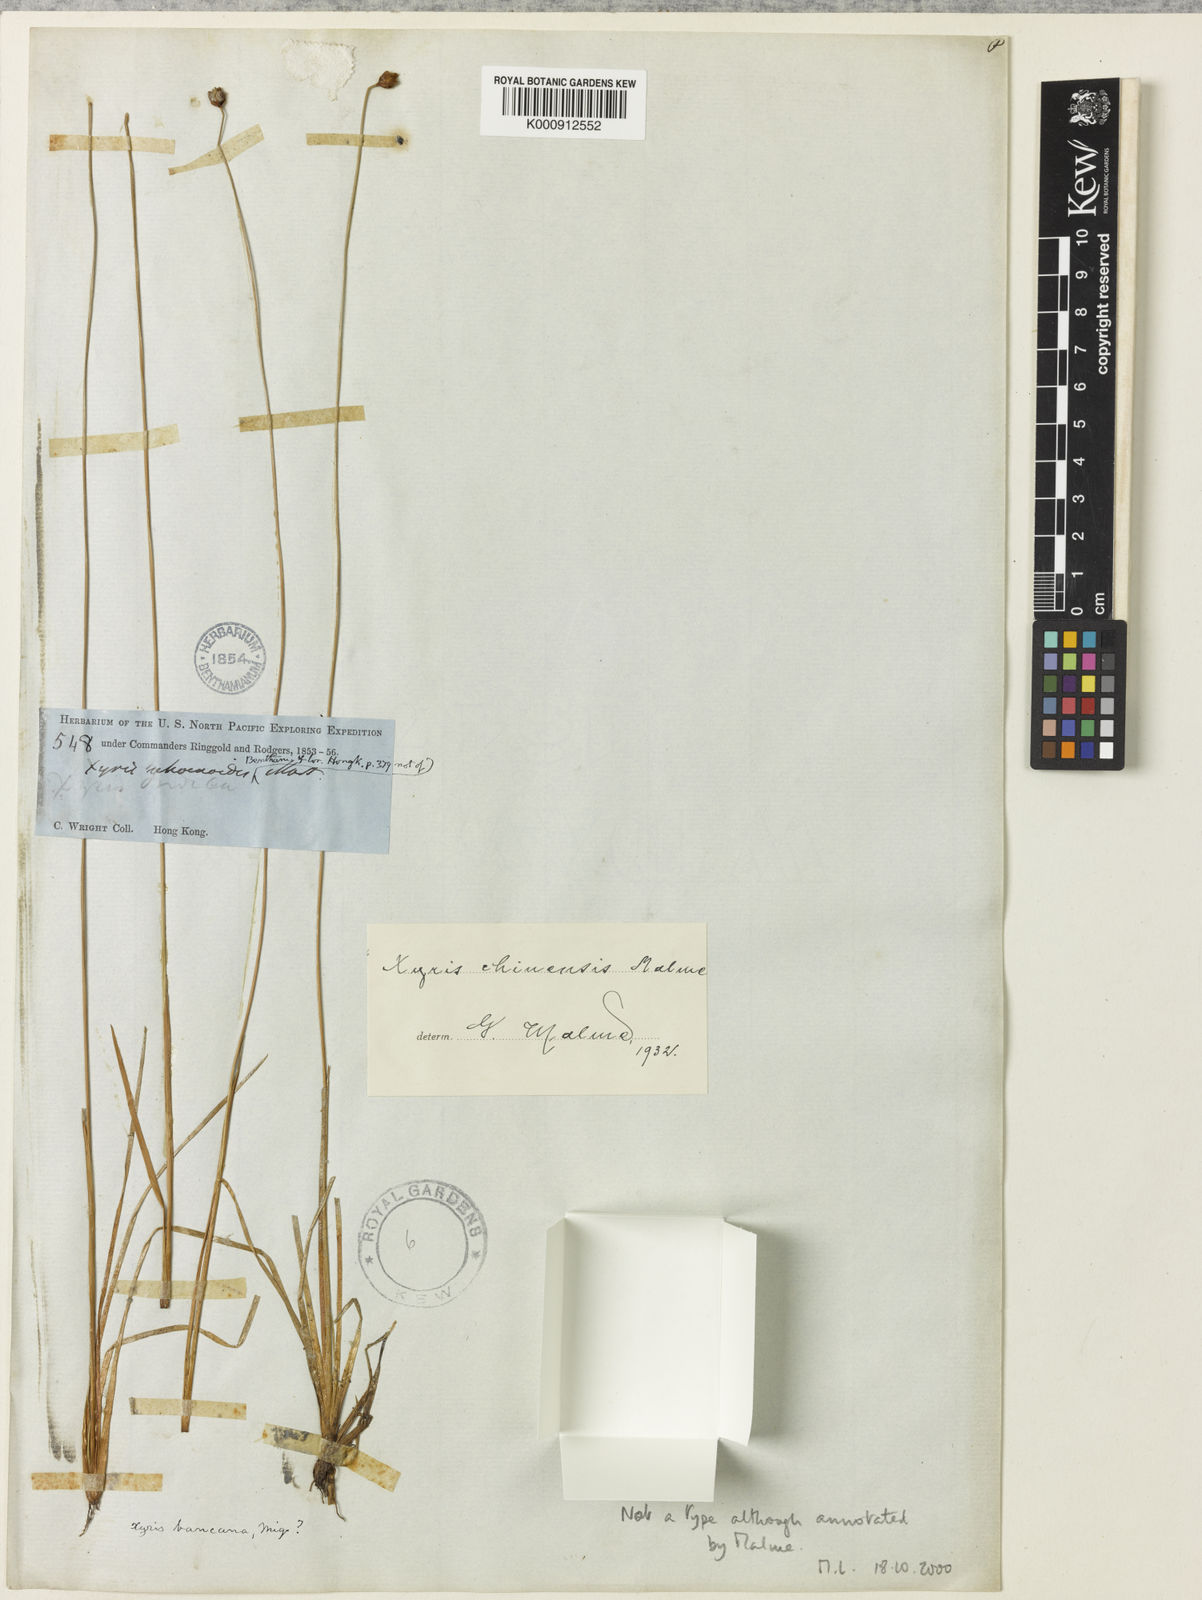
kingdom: Plantae
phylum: Tracheophyta
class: Liliopsida
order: Poales
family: Xyridaceae
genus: Xyris
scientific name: Xyris bancana
